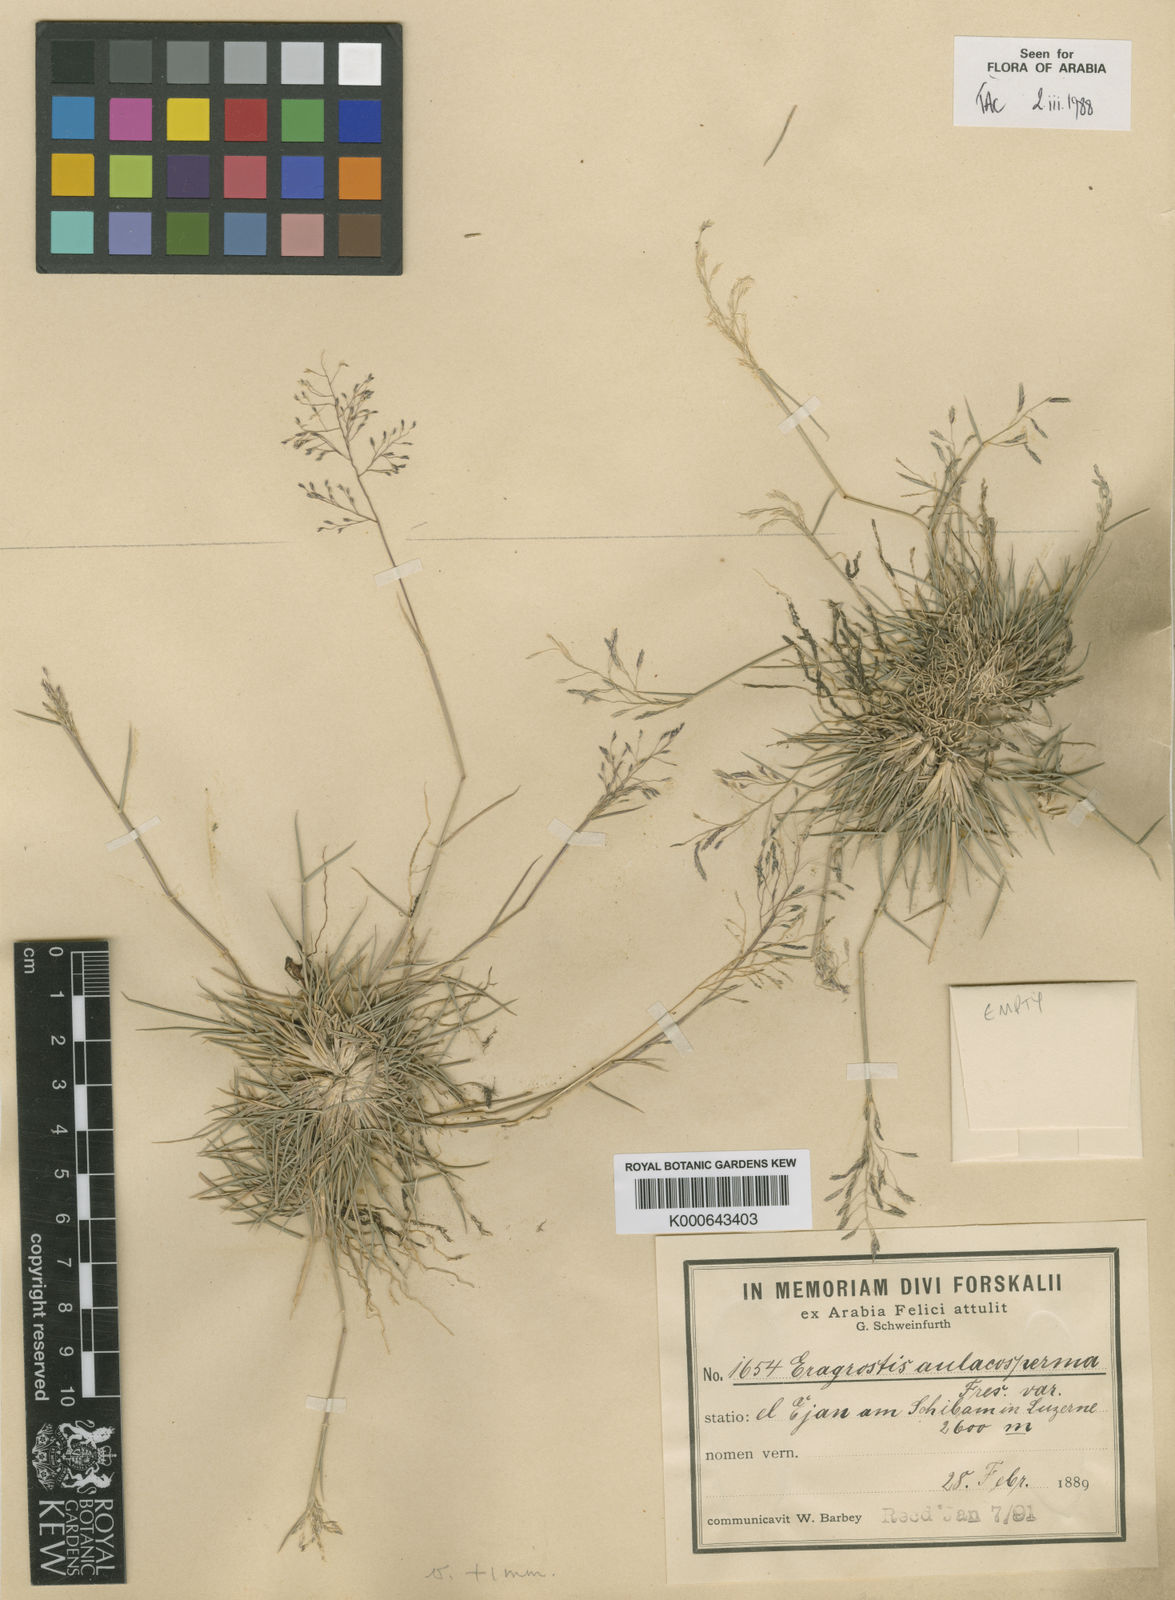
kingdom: Plantae
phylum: Tracheophyta
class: Liliopsida
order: Poales
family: Poaceae
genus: Eragrostis
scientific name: Eragrostis papposa
